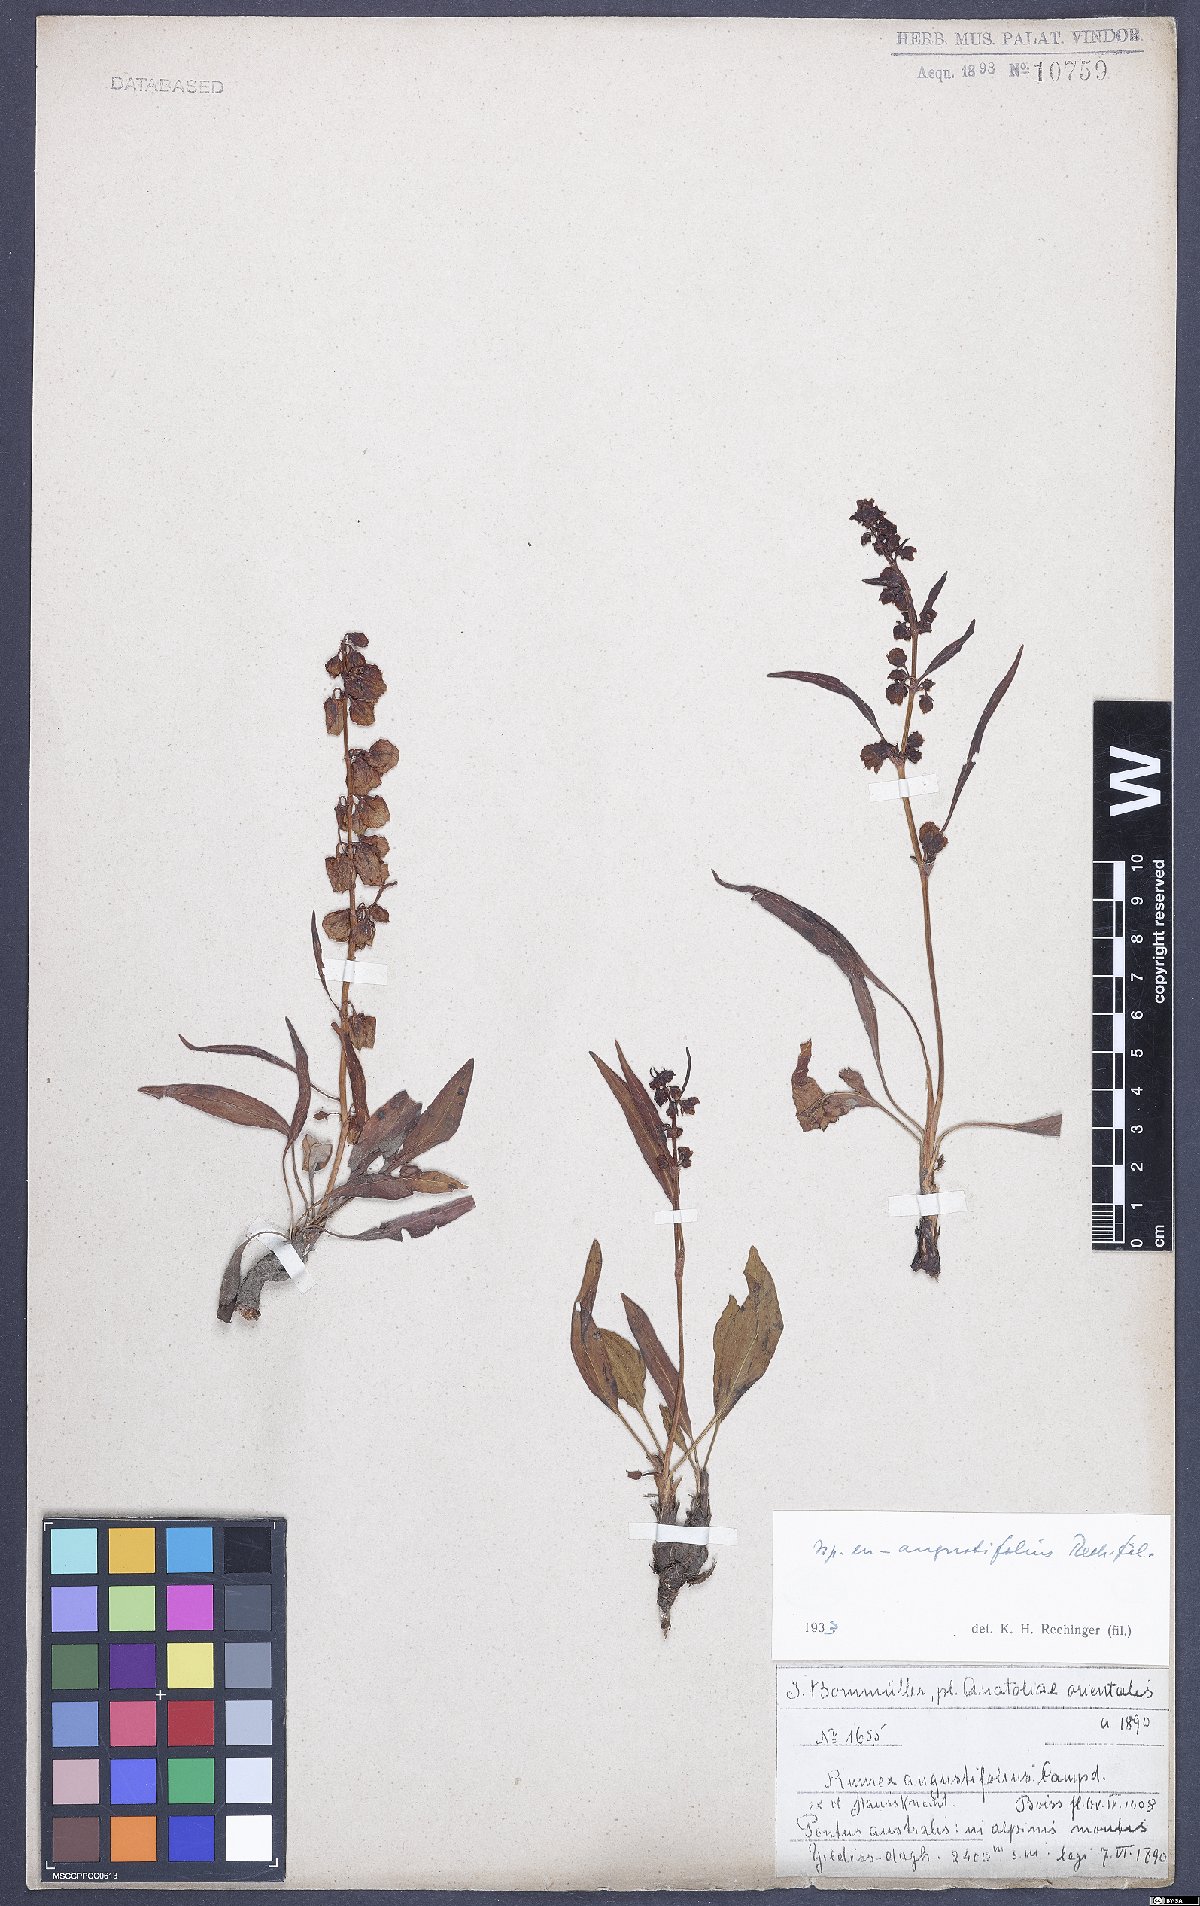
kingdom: Plantae
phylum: Tracheophyta
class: Magnoliopsida
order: Caryophyllales
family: Polygonaceae
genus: Rumex
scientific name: Rumex angustifolius
